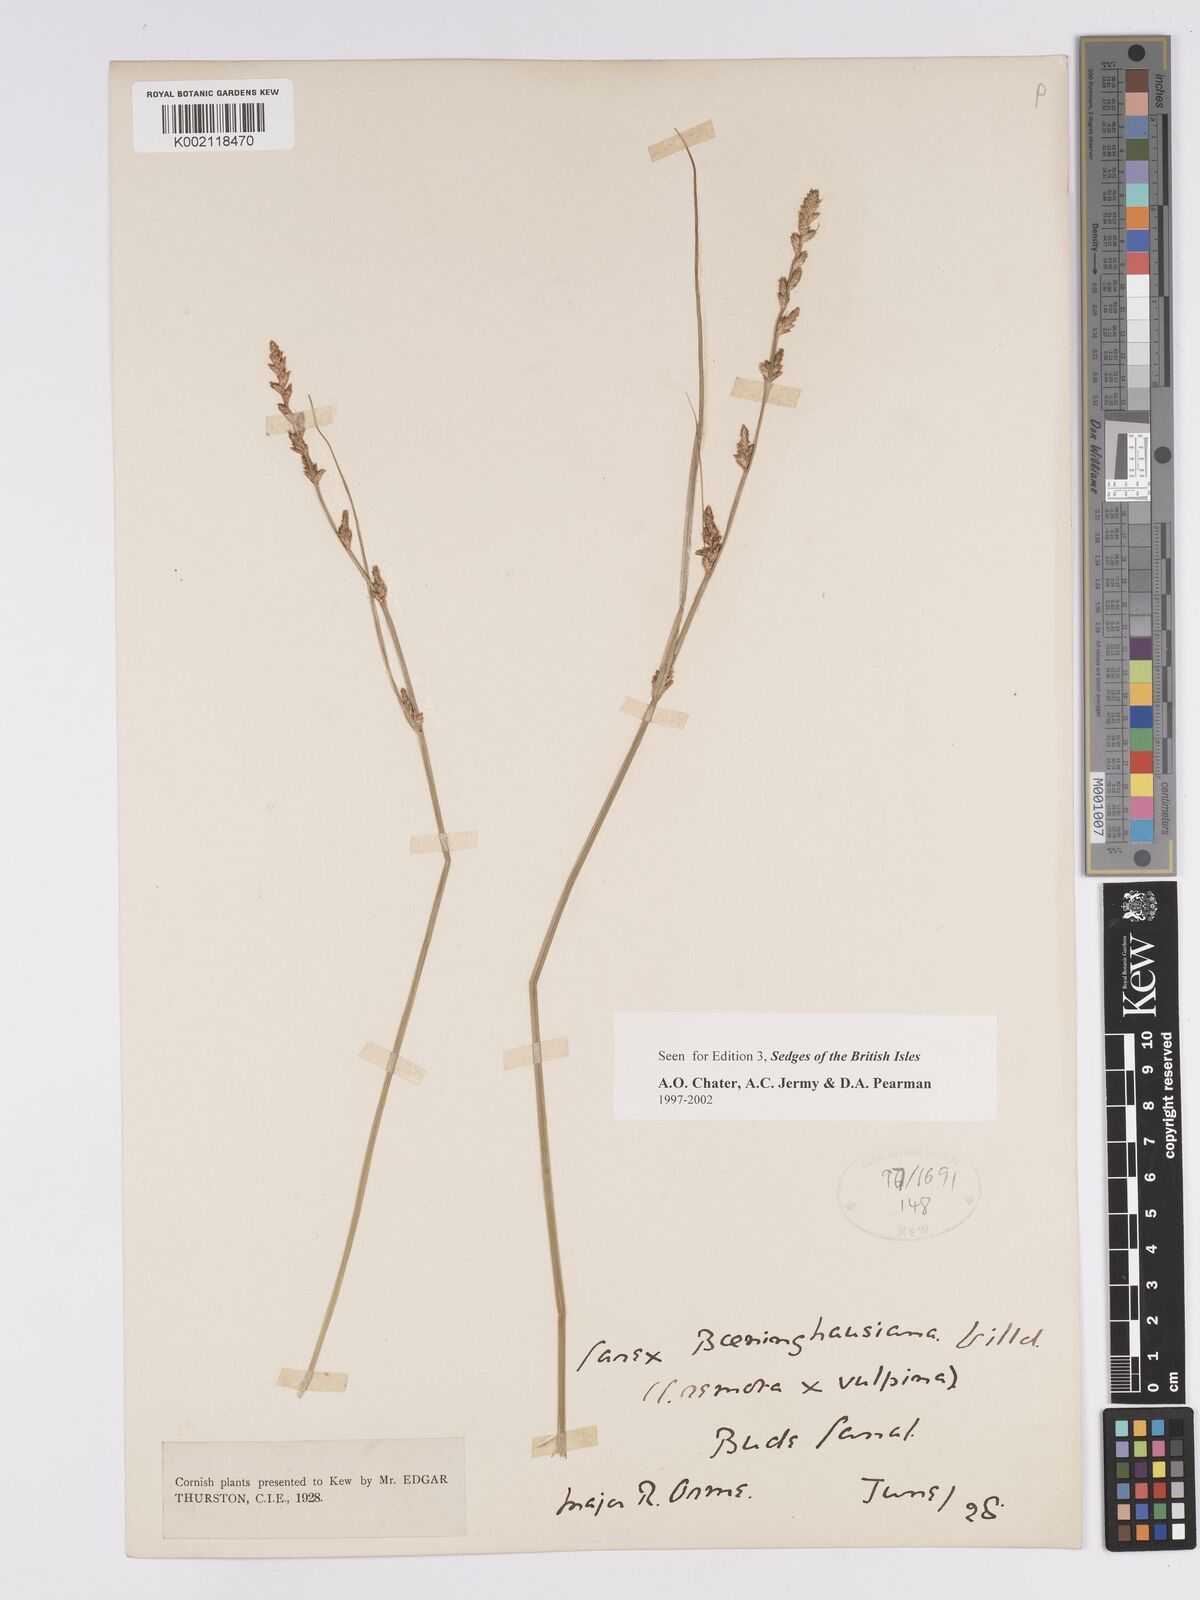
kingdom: Plantae
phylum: Tracheophyta
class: Liliopsida
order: Poales
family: Cyperaceae
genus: Carex
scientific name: Carex boenninghausiana
